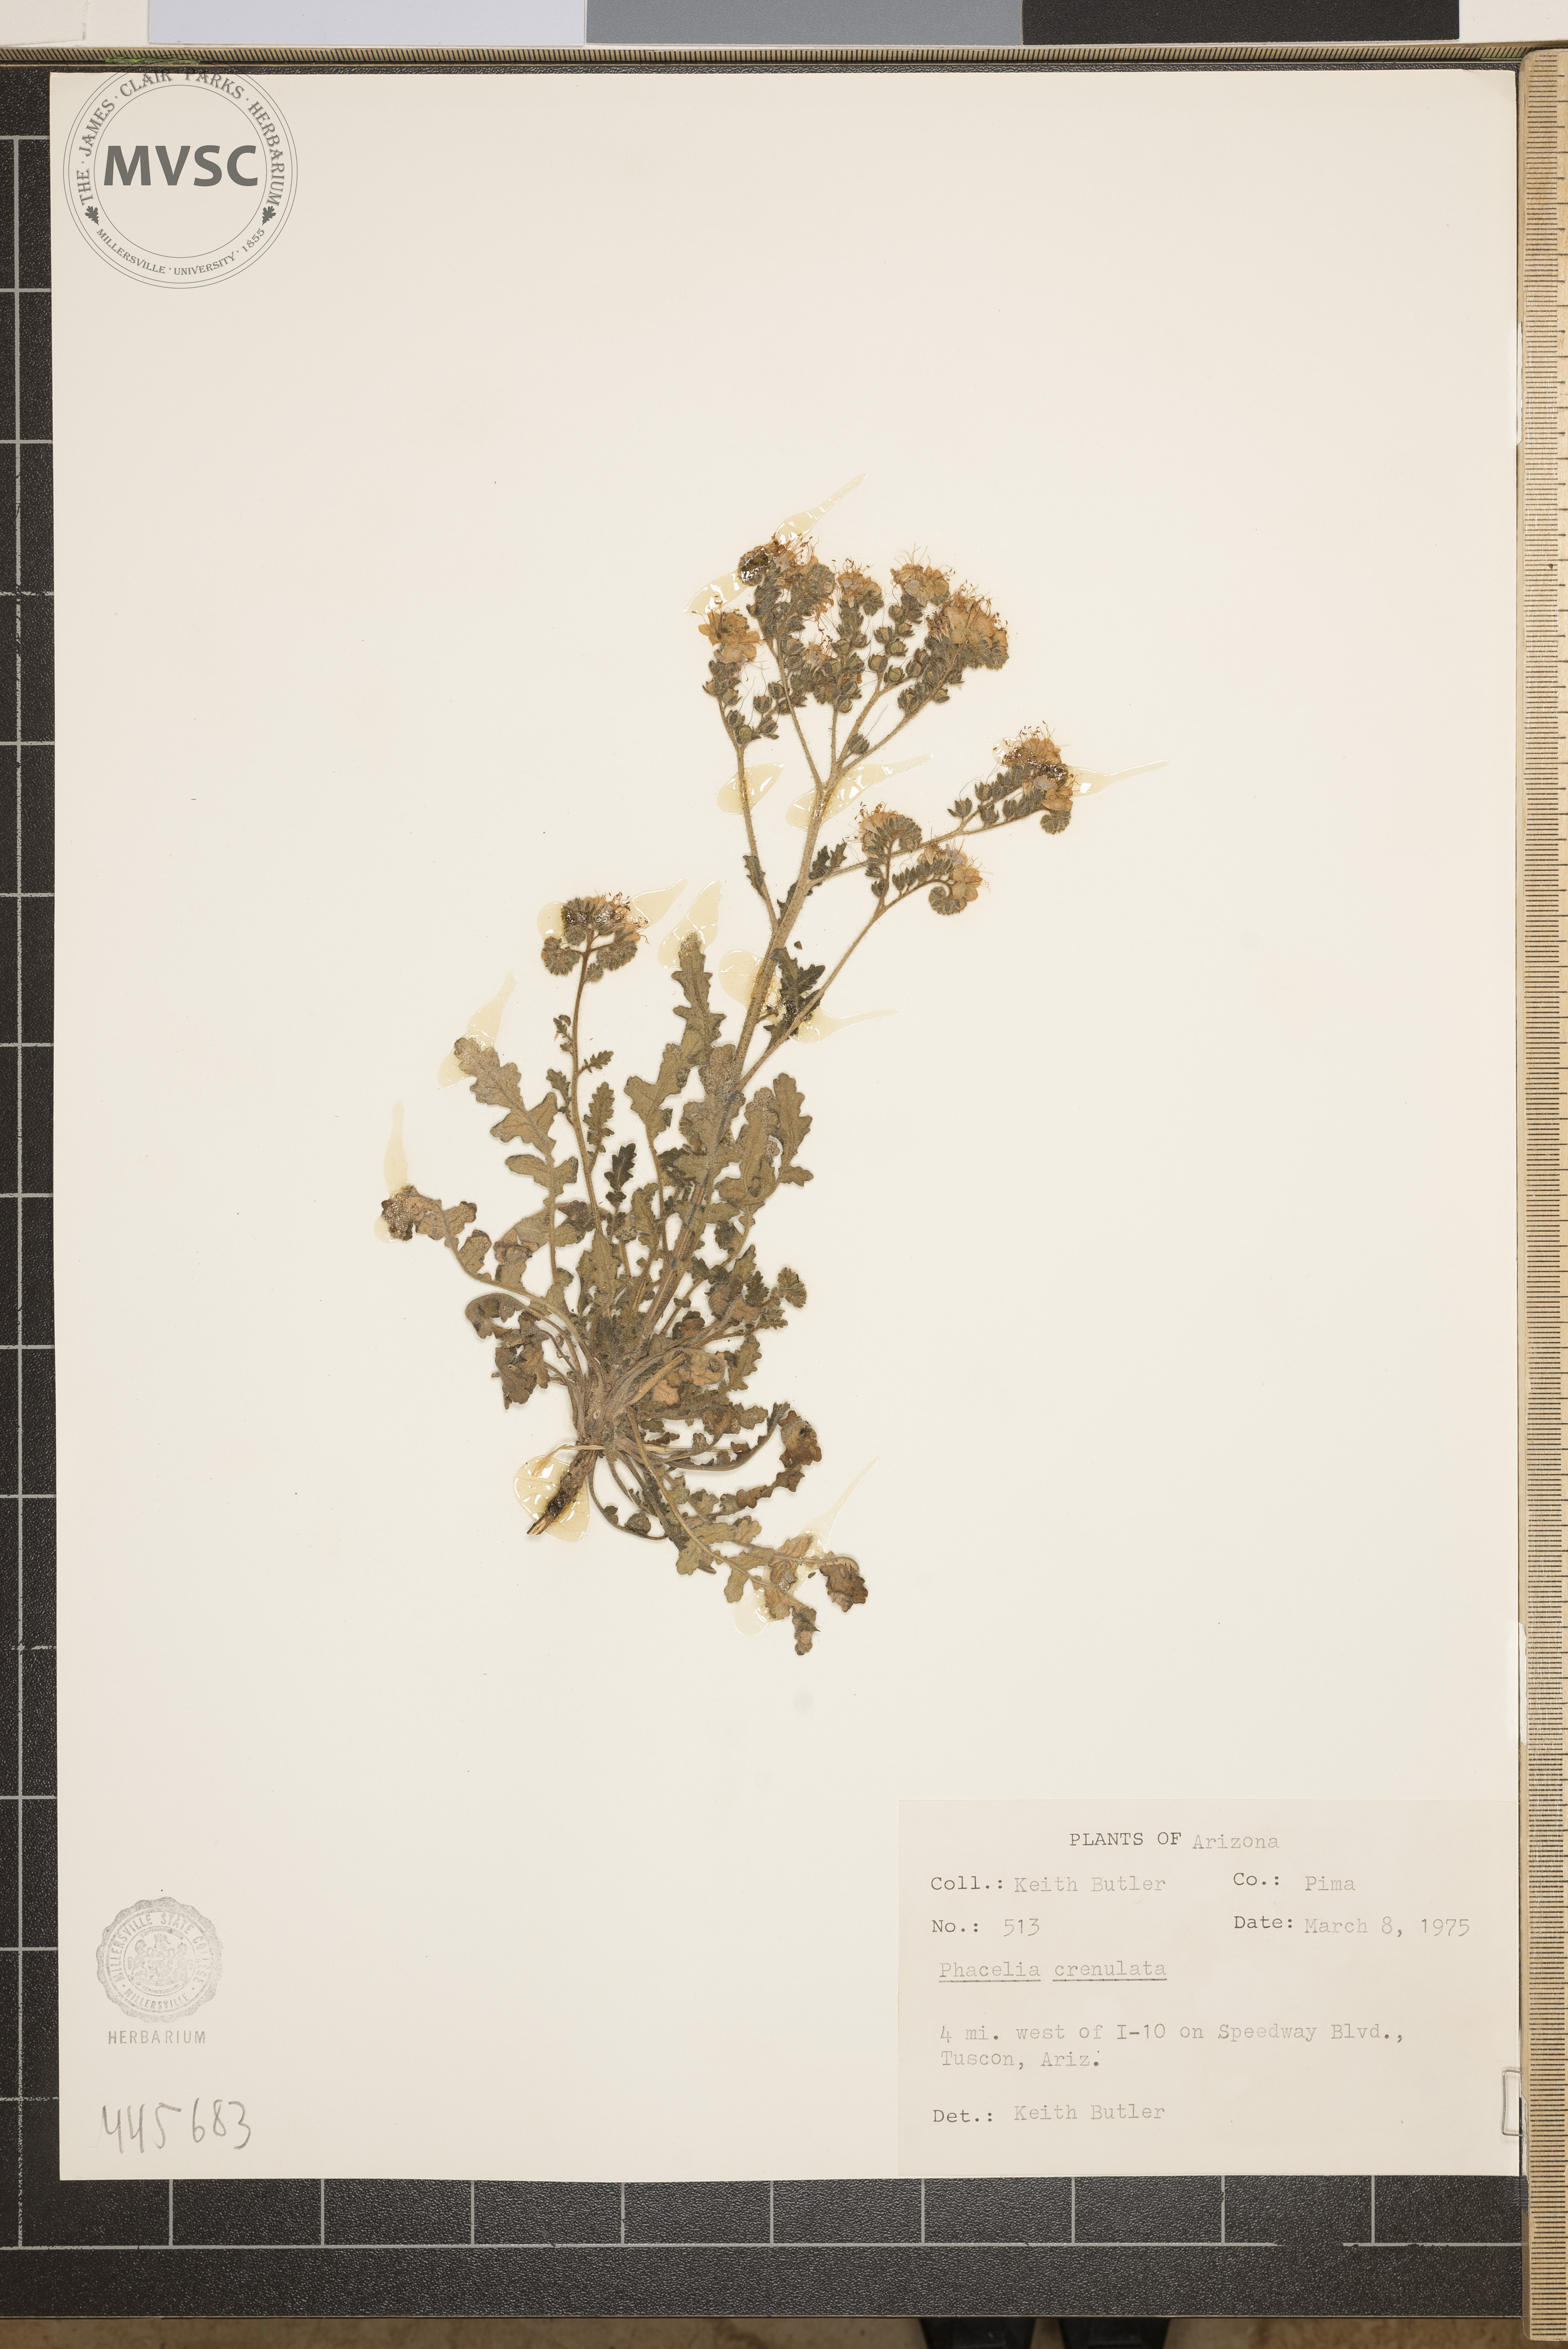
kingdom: Plantae
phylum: Tracheophyta
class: Magnoliopsida
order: Boraginales
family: Hydrophyllaceae
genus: Phacelia
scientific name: Phacelia crenulata
